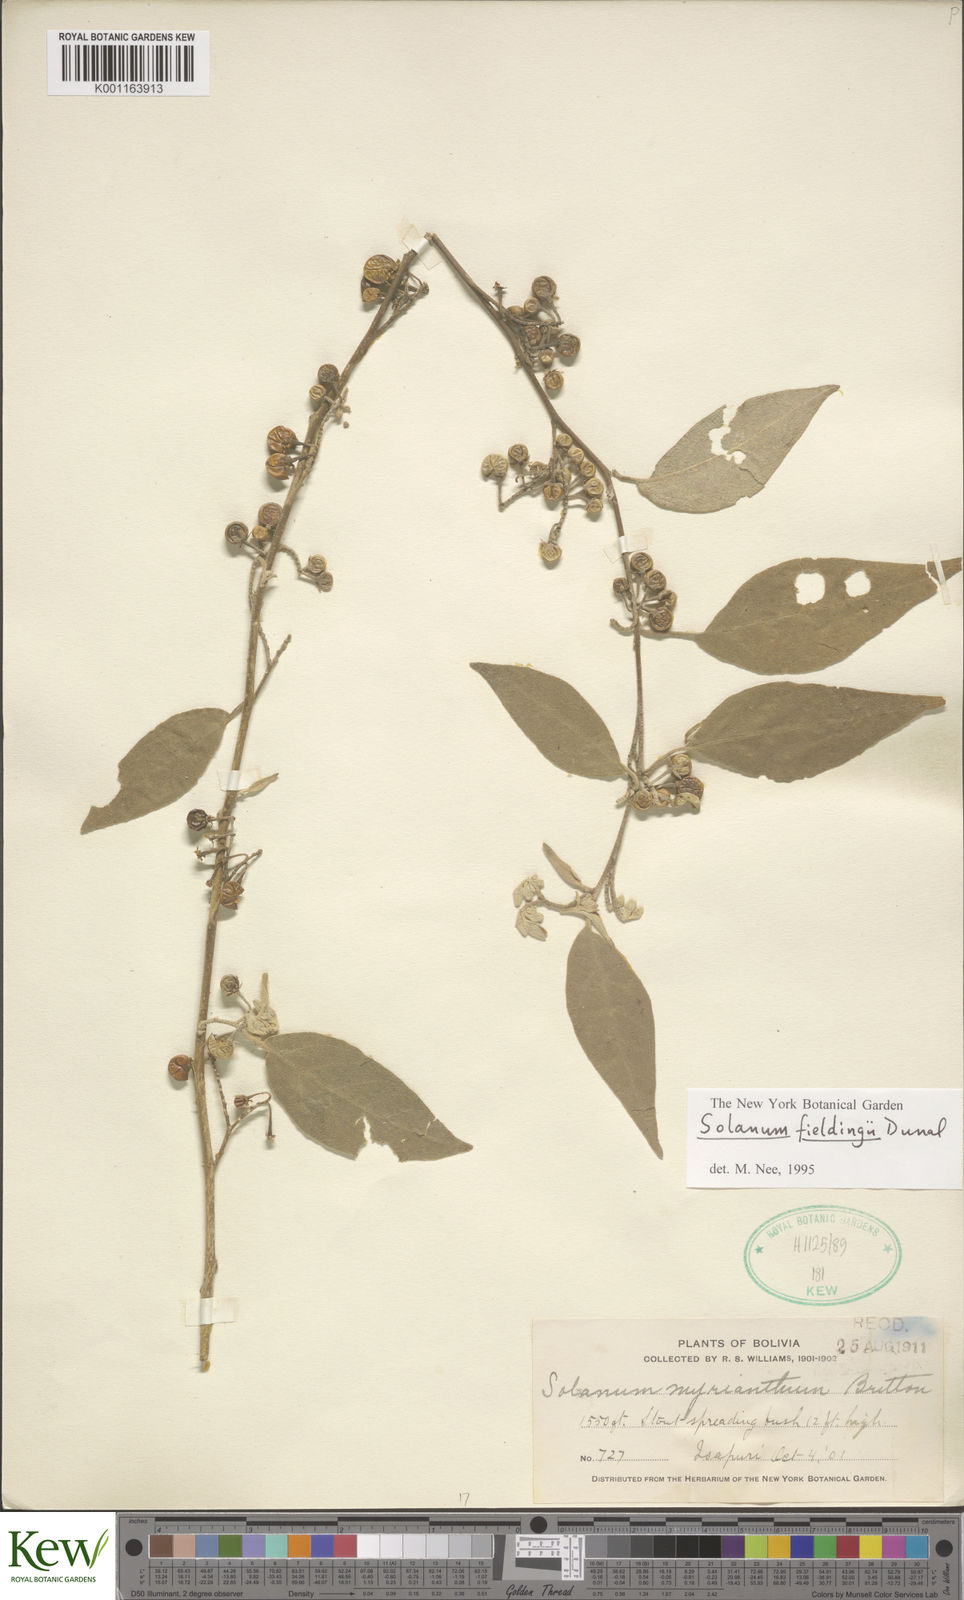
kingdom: Plantae
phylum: Tracheophyta
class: Magnoliopsida
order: Solanales
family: Solanaceae
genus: Solanum
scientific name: Solanum acutilobum
